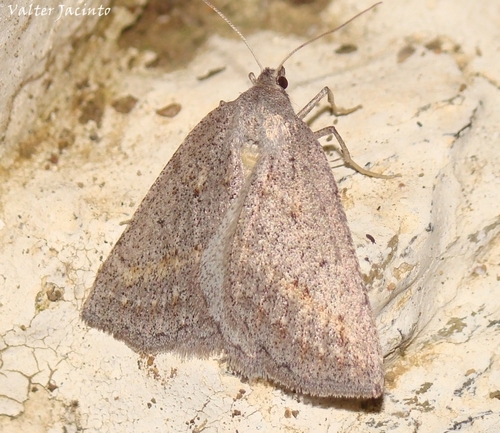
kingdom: Animalia
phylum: Arthropoda
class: Insecta
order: Lepidoptera
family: Geometridae
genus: Chemerina
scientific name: Chemerina caliginearia
